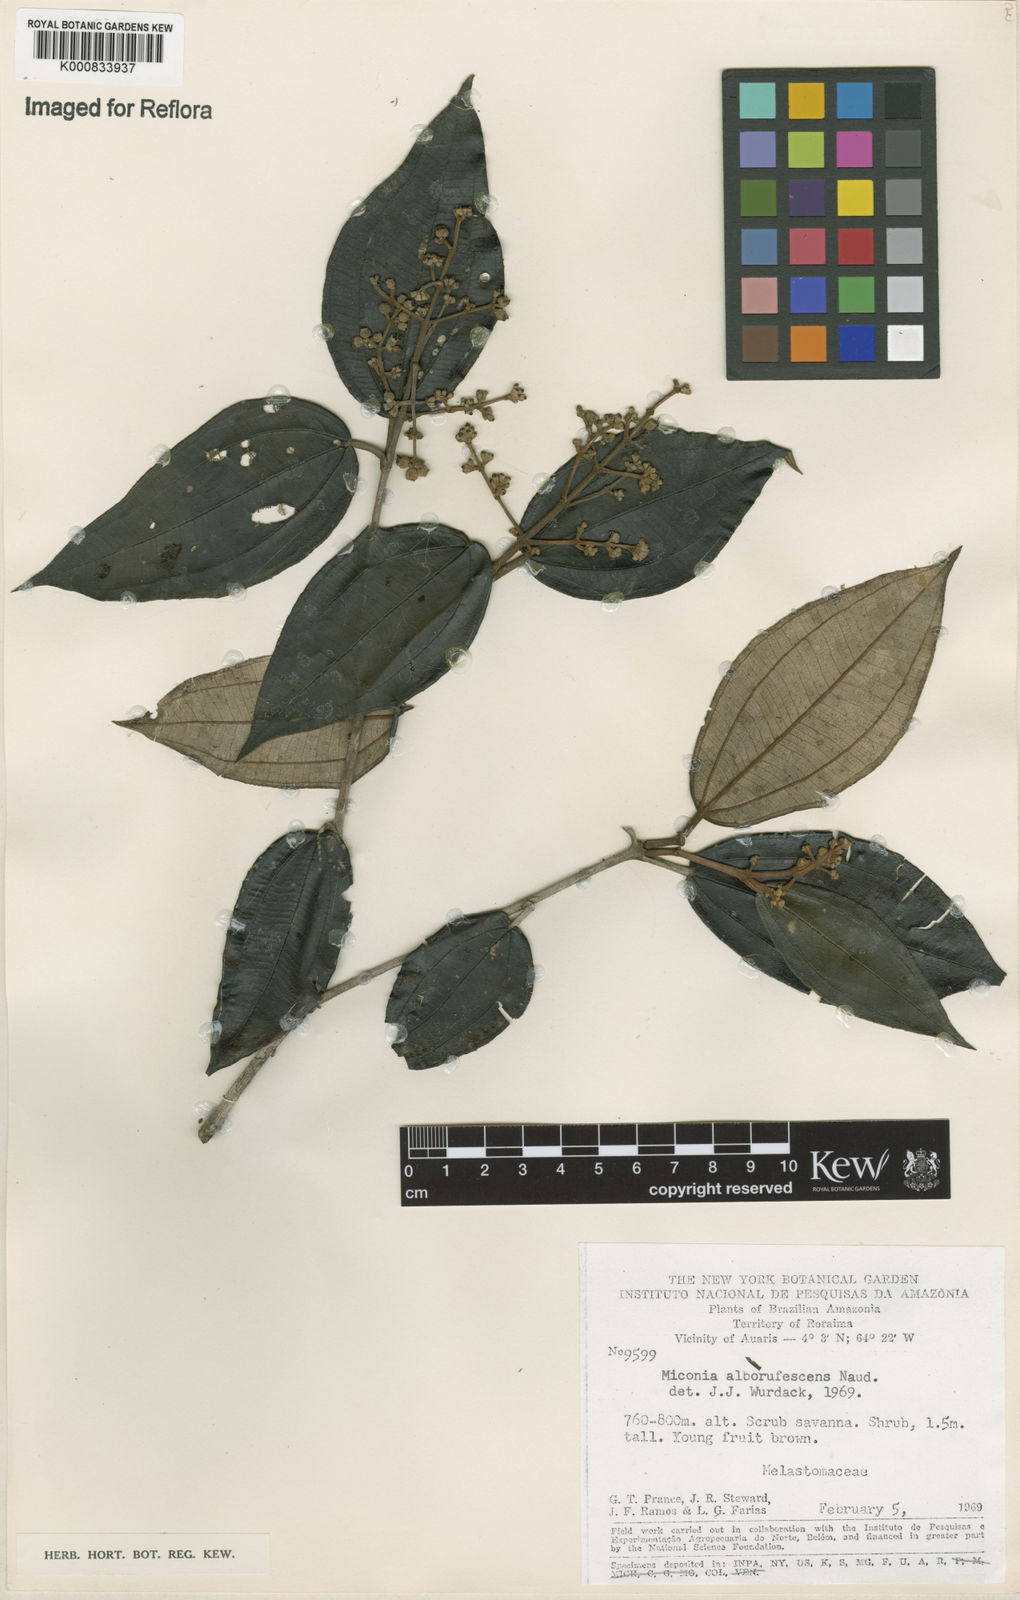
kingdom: Plantae
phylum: Tracheophyta
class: Magnoliopsida
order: Myrtales
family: Melastomataceae
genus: Miconia
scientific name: Miconia alborufescens
